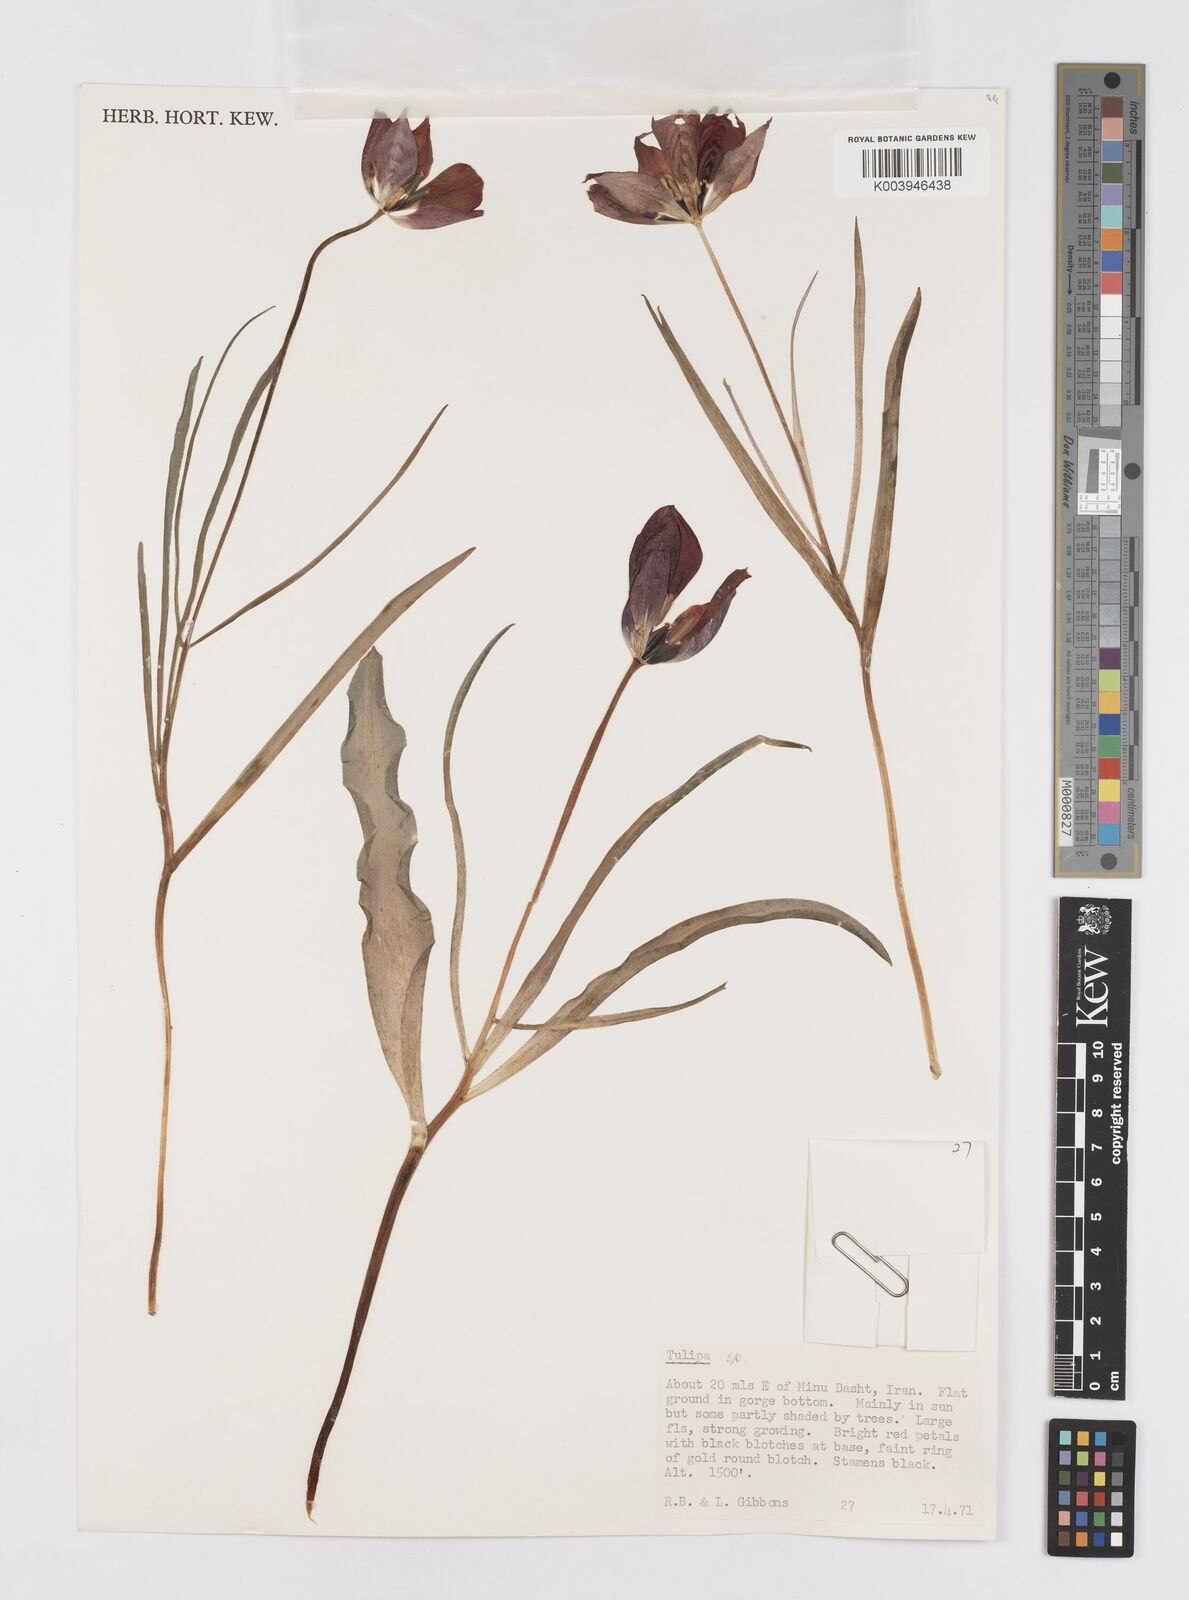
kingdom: Plantae
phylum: Tracheophyta
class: Liliopsida
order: Liliales
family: Liliaceae
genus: Tulipa
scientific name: Tulipa
